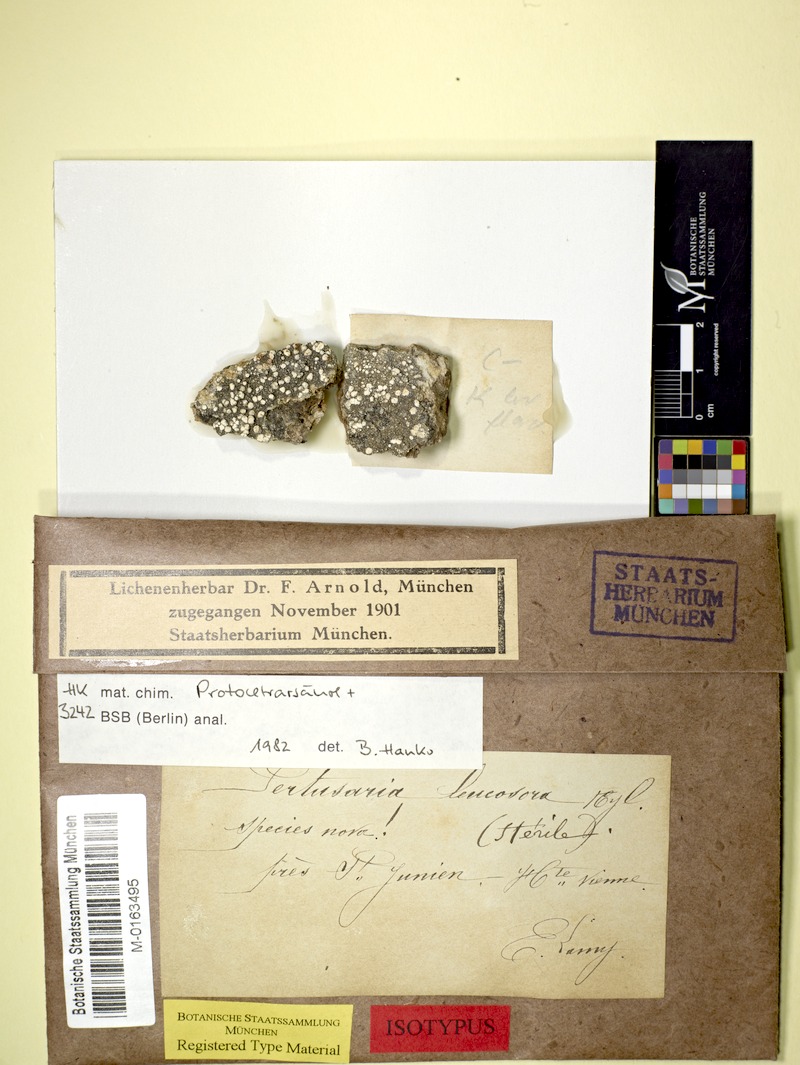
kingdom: Fungi
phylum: Ascomycota
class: Lecanoromycetes
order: Pertusariales
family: Pertusariaceae
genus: Lepra
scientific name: Lepra leucosora
